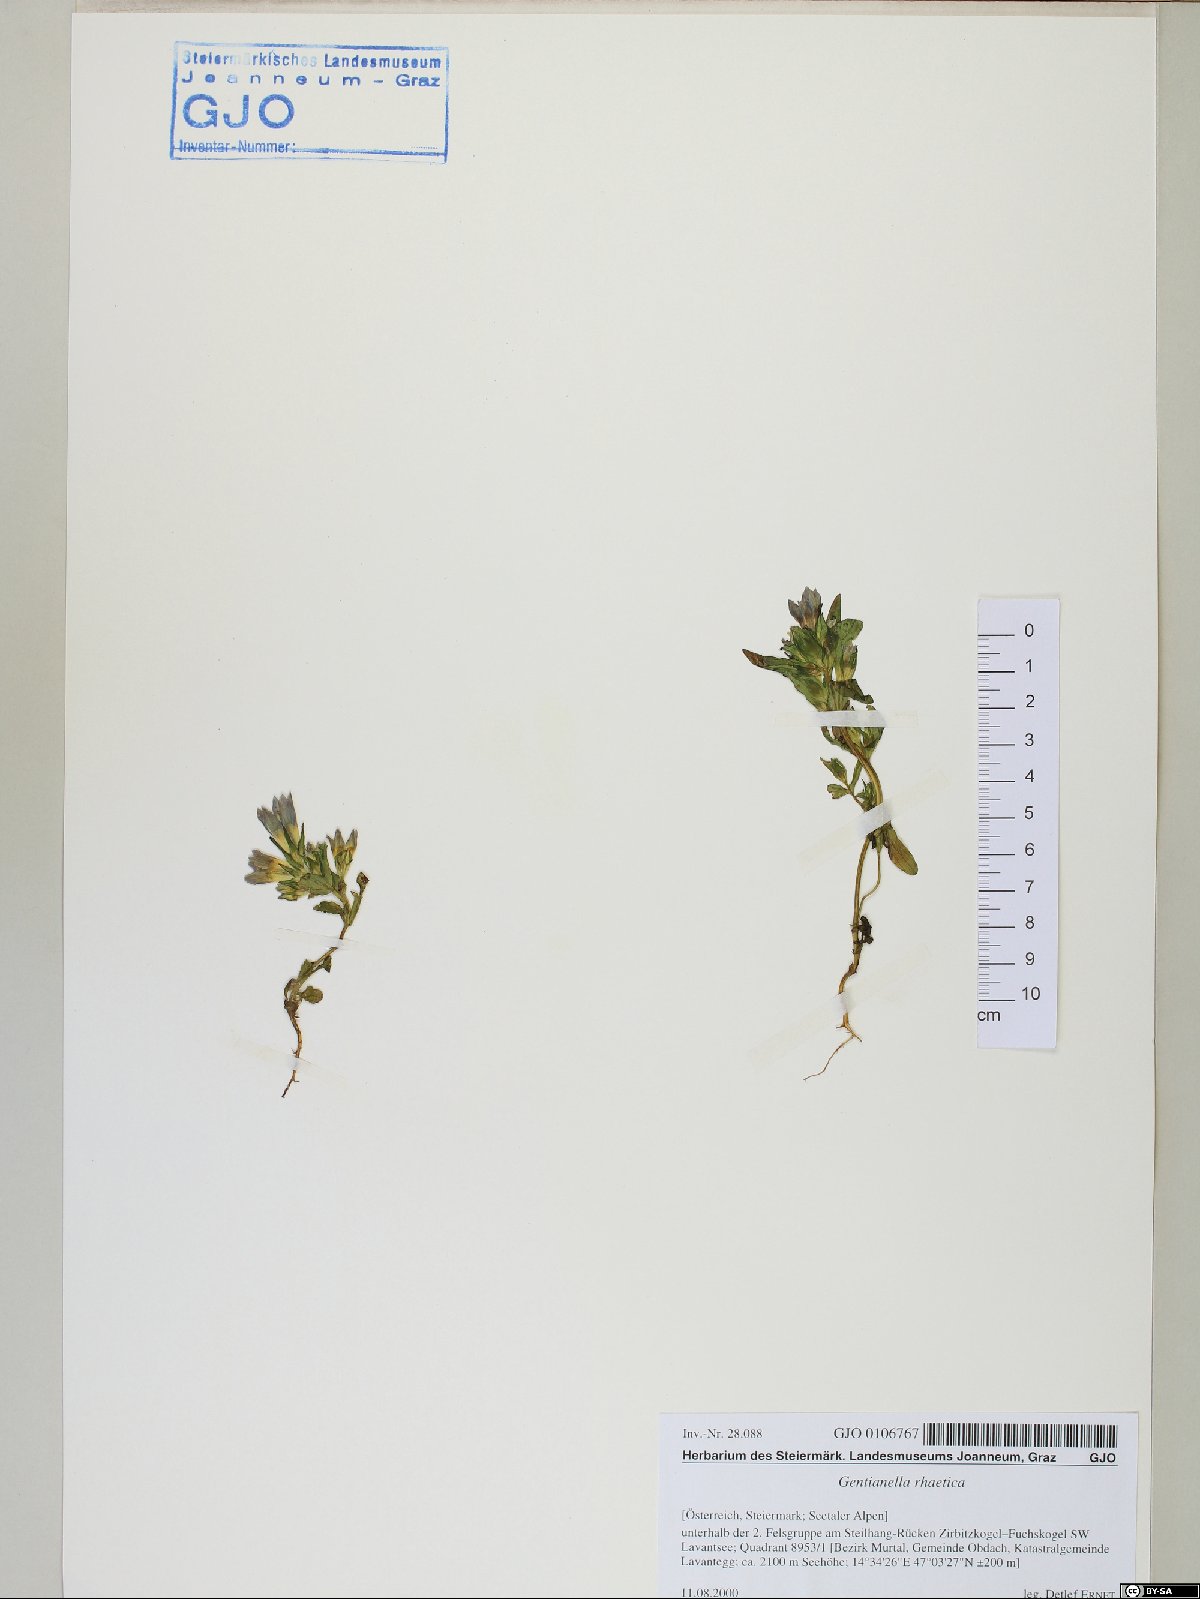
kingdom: Plantae
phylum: Tracheophyta
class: Magnoliopsida
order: Gentianales
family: Gentianaceae
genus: Gentianella
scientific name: Gentianella rhaetica
